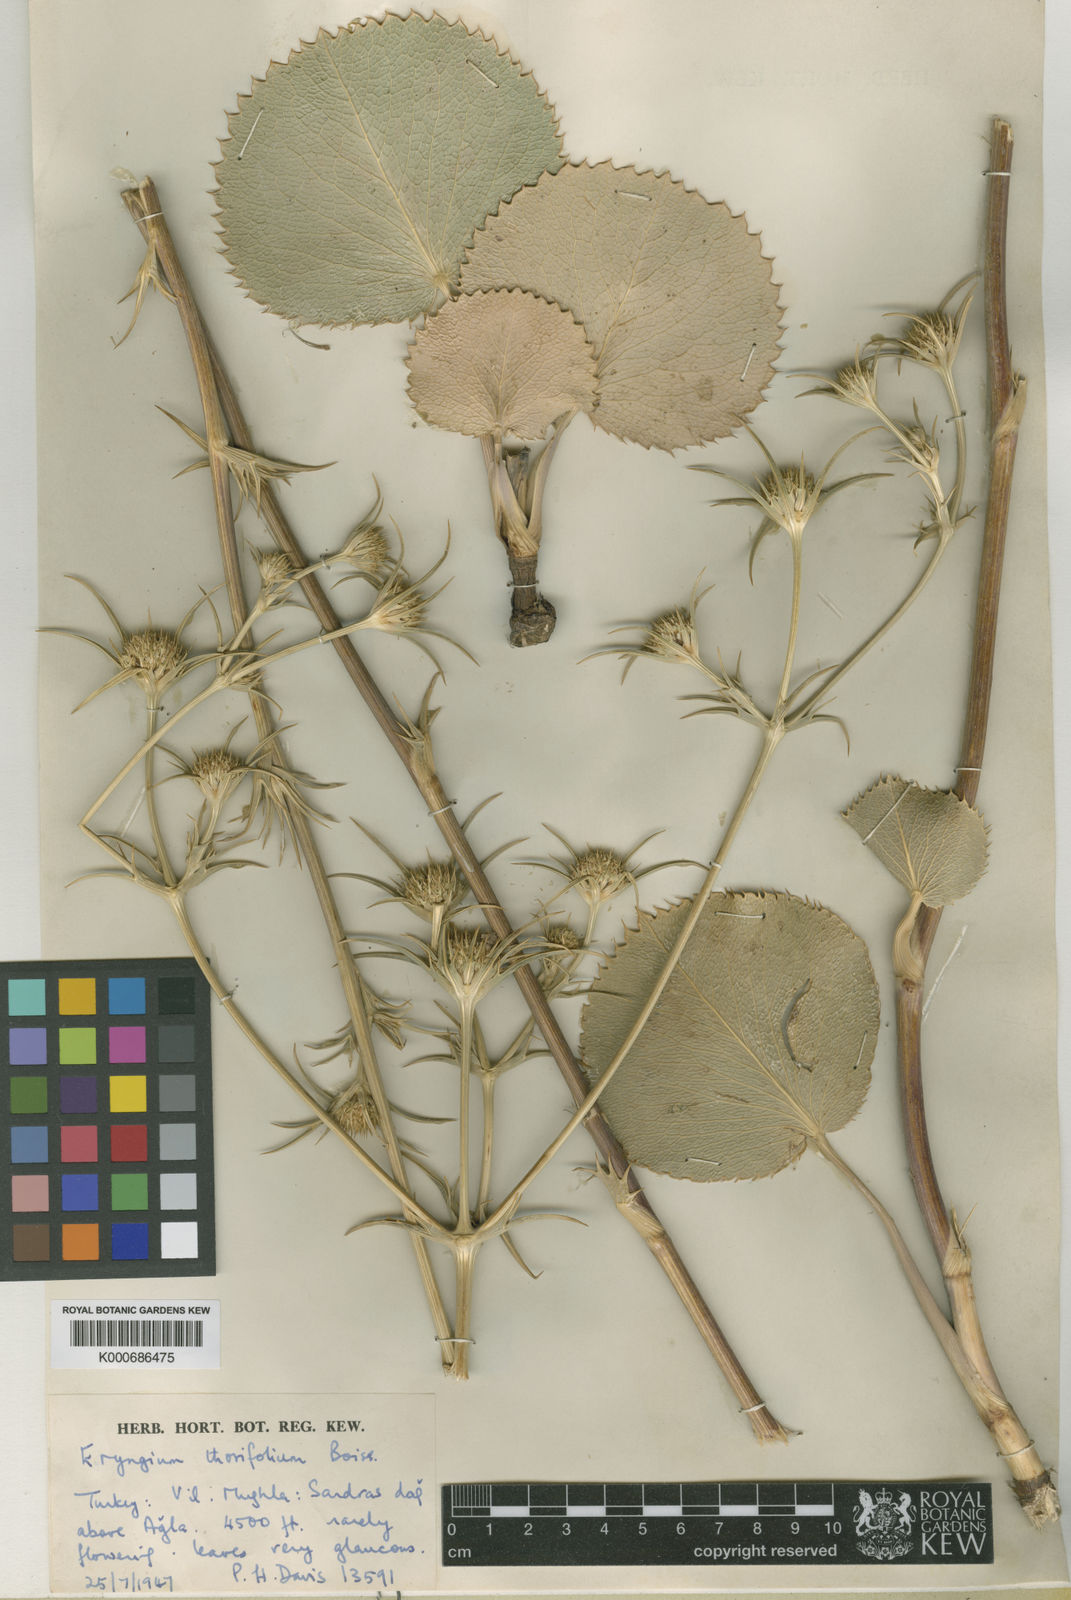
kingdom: Plantae
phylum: Tracheophyta
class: Magnoliopsida
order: Apiales
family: Apiaceae
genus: Eryngium
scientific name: Eryngium thorifolium
